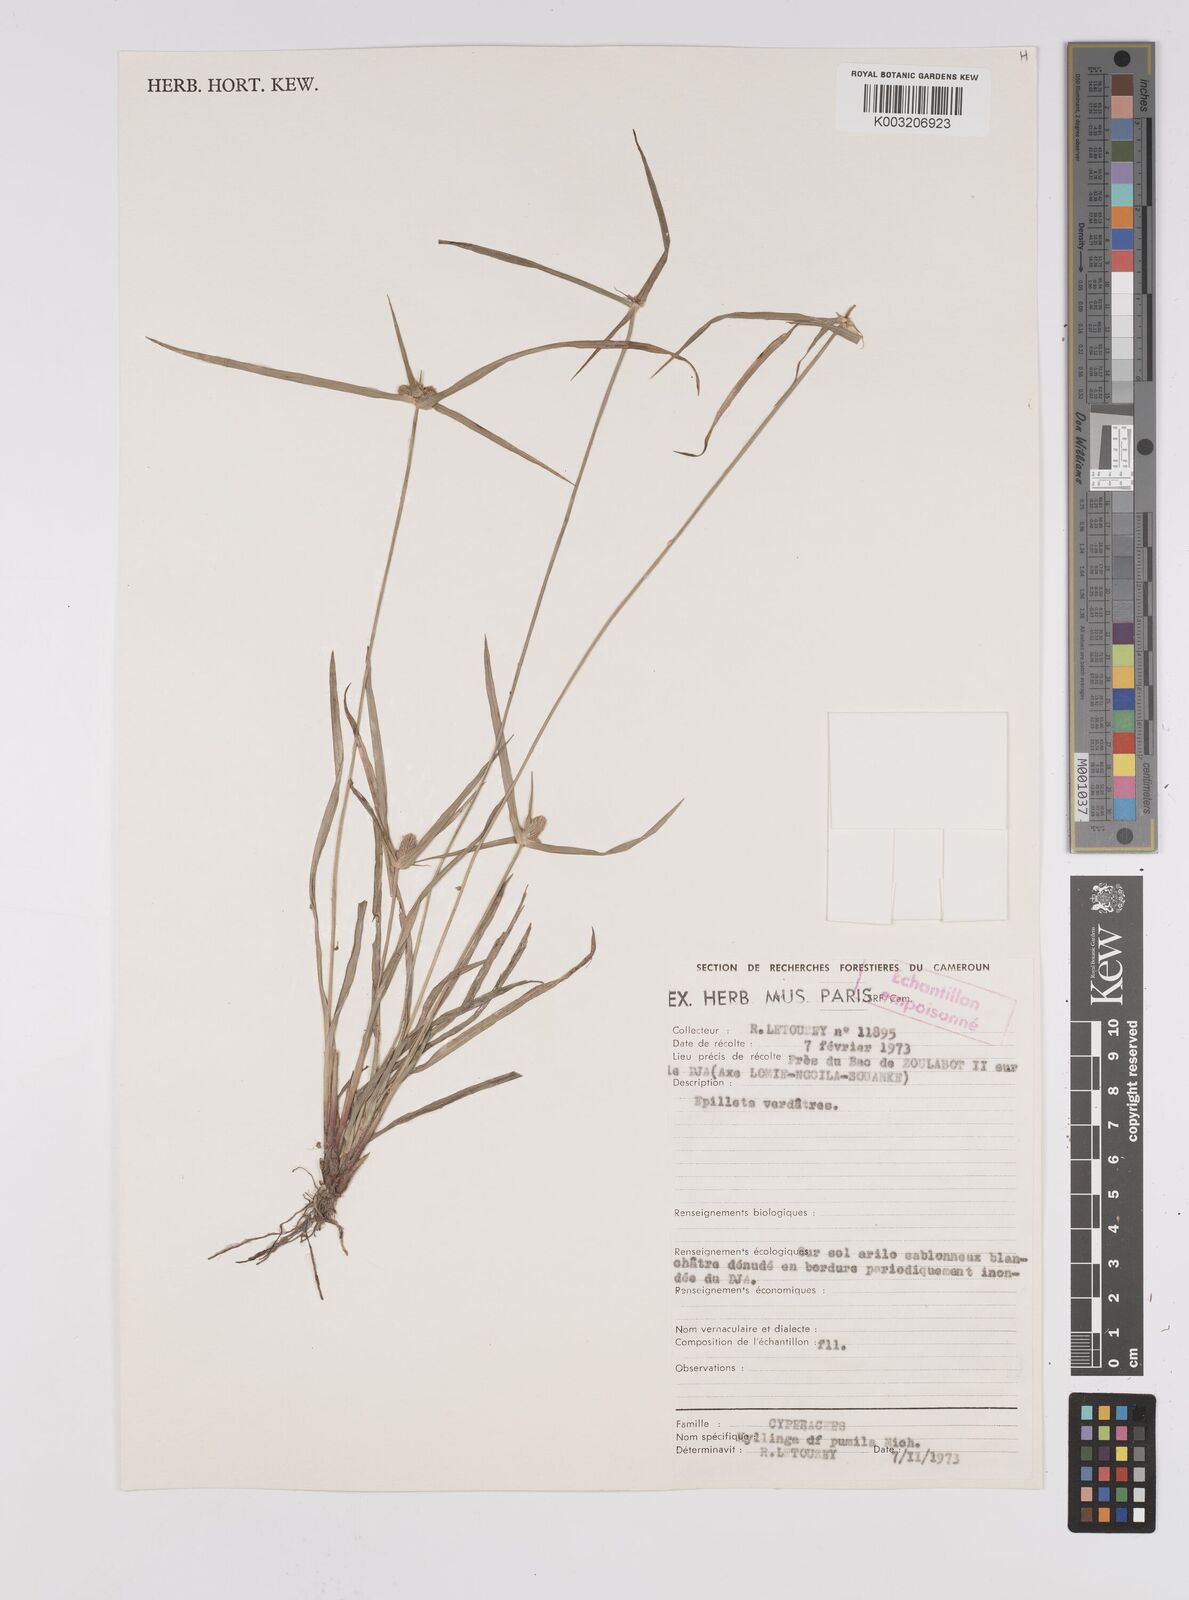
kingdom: Plantae
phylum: Tracheophyta
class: Liliopsida
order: Poales
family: Cyperaceae
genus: Cyperus
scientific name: Cyperus hortensis
